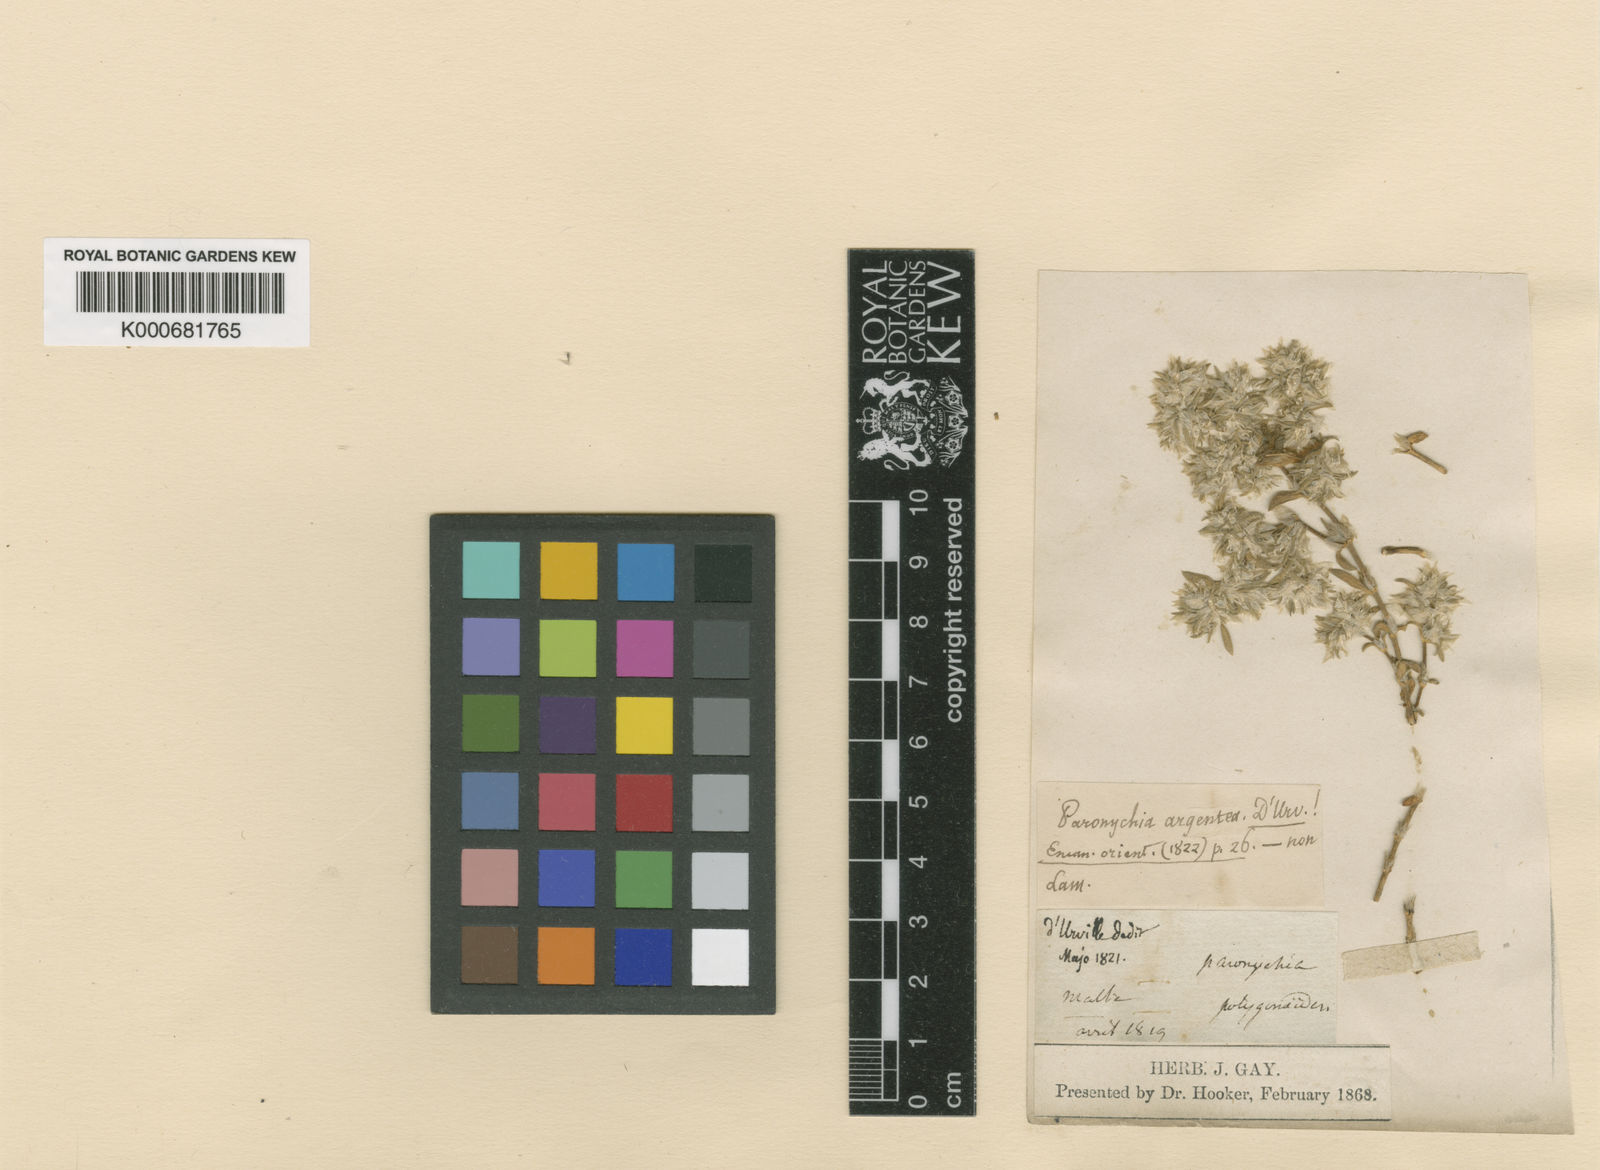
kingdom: Plantae
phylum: Tracheophyta
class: Magnoliopsida
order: Caryophyllales
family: Caryophyllaceae
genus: Paronychia
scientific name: Paronychia macrosepala
